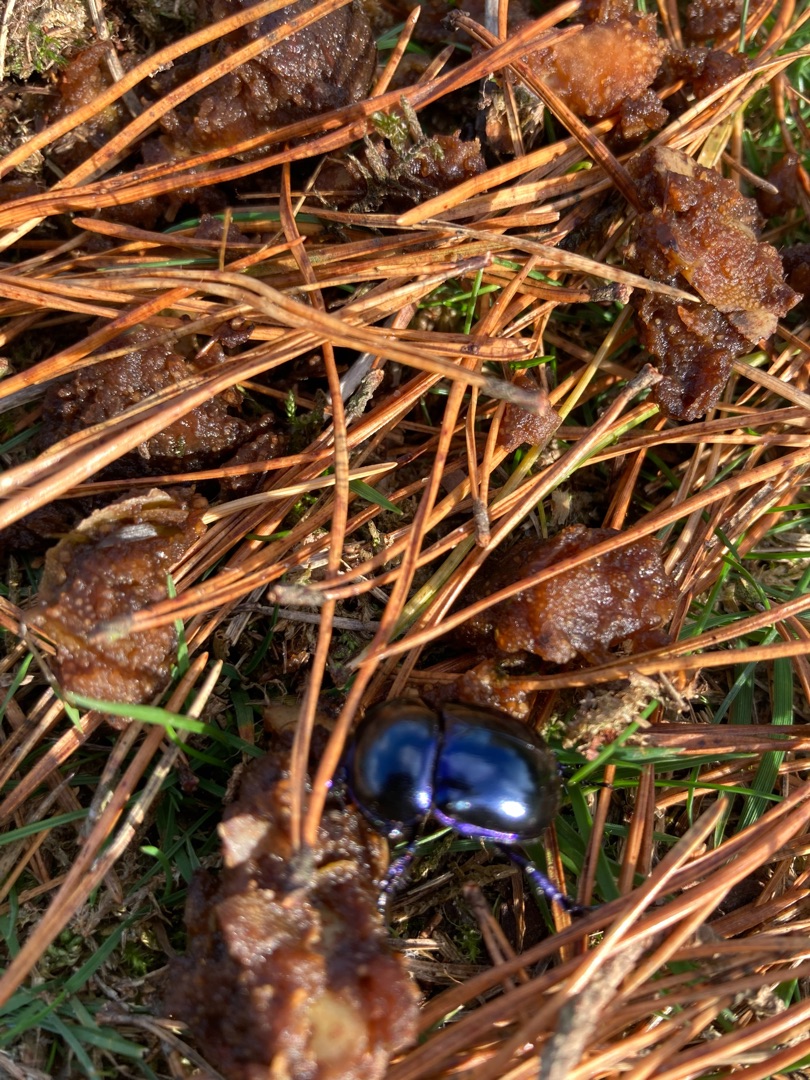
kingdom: Animalia
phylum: Arthropoda
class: Insecta
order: Coleoptera
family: Geotrupidae
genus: Trypocopris
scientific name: Trypocopris vernalis
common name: Glat skarnbasse
